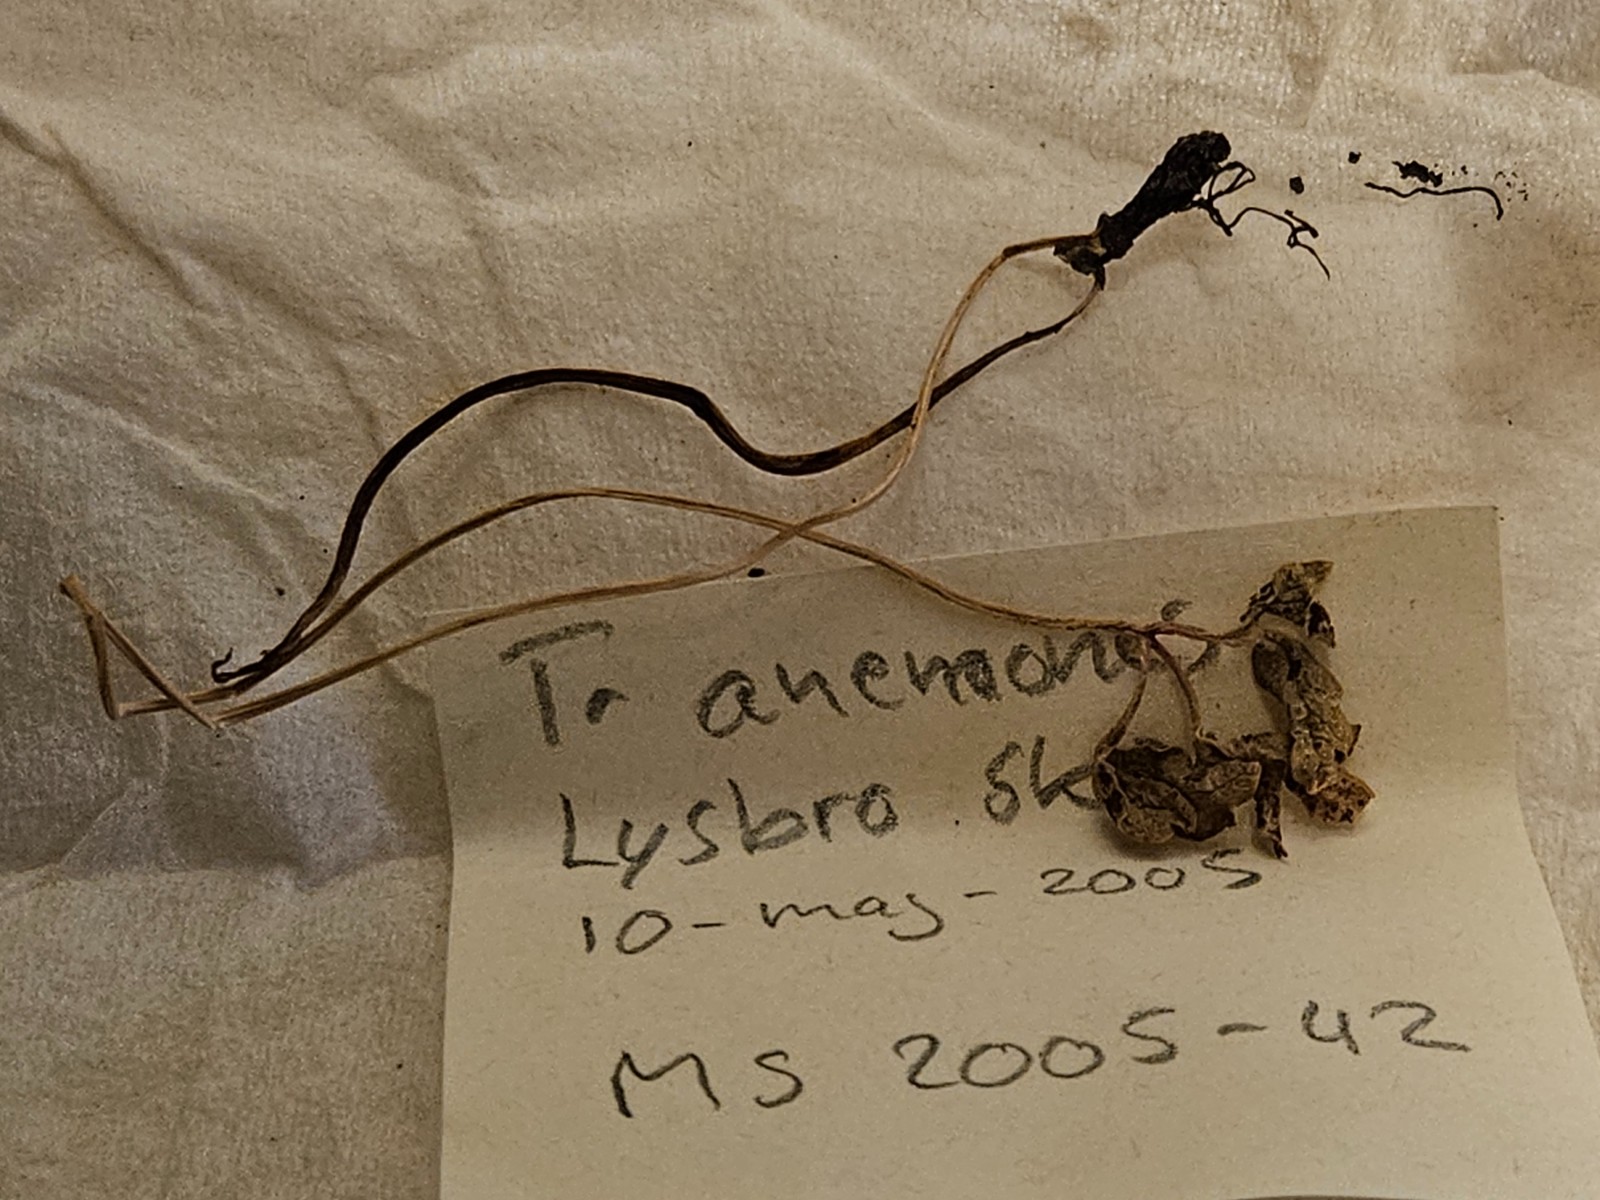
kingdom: Fungi
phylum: Basidiomycota
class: Pucciniomycetes
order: Pucciniales
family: Tranzscheliaceae
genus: Tranzschelia
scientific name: Tranzschelia anemones
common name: anemone-knæksporerust
